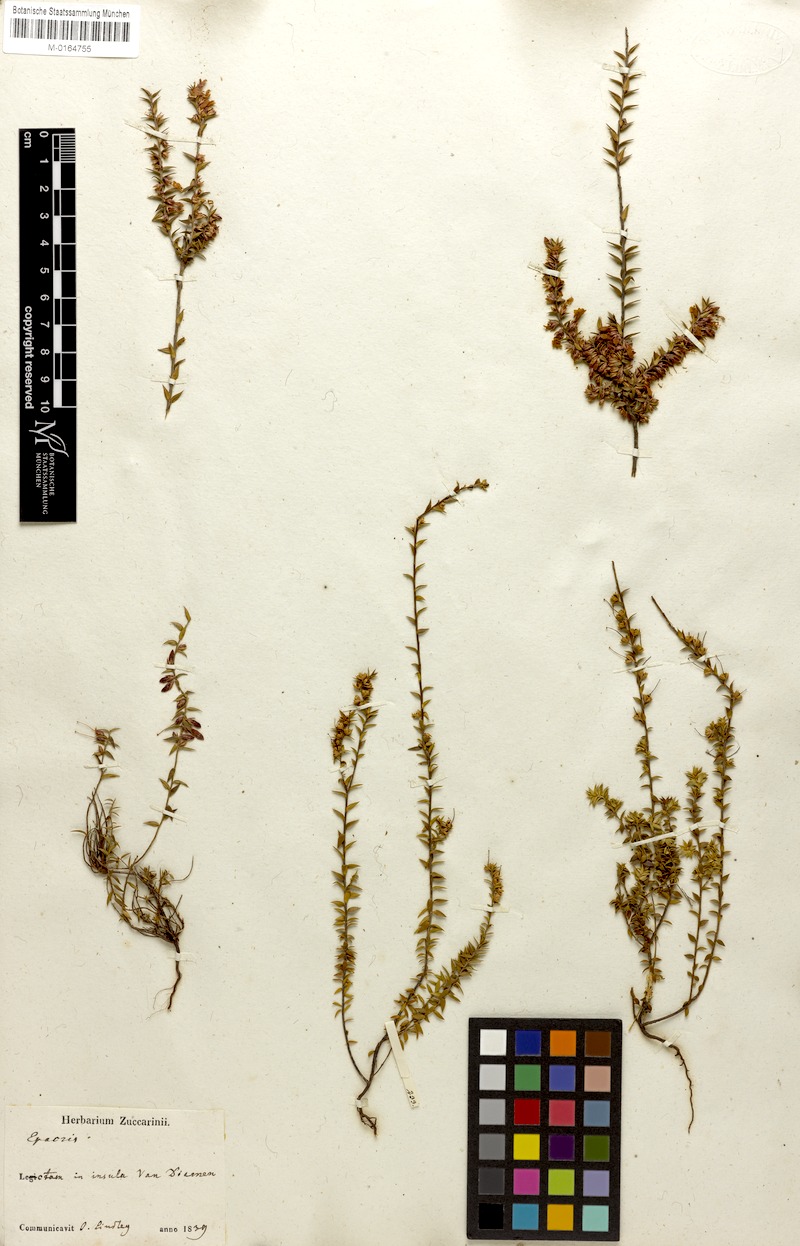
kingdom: Plantae
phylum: Tracheophyta
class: Magnoliopsida
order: Ericales
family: Ericaceae
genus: Epacris
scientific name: Epacris impressa
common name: Common-heath
